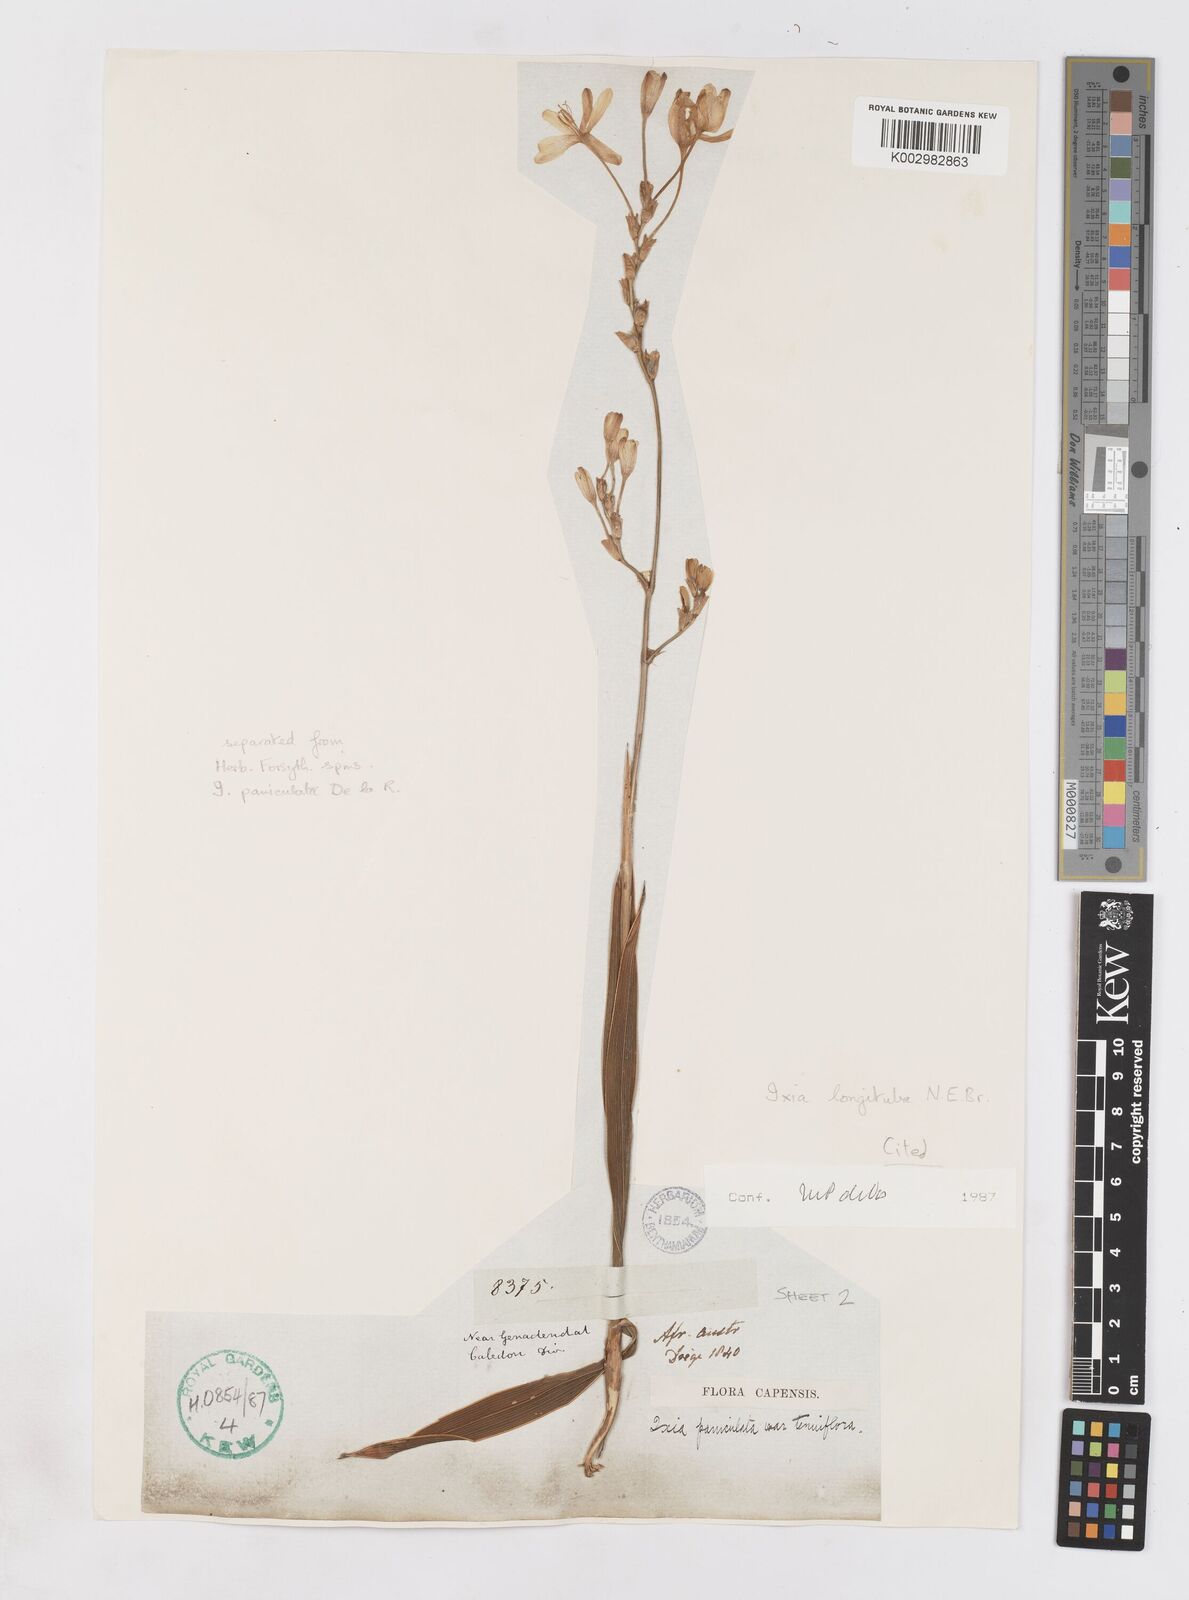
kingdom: Plantae
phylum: Tracheophyta
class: Liliopsida
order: Asparagales
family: Iridaceae
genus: Ixia
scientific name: Ixia longituba
